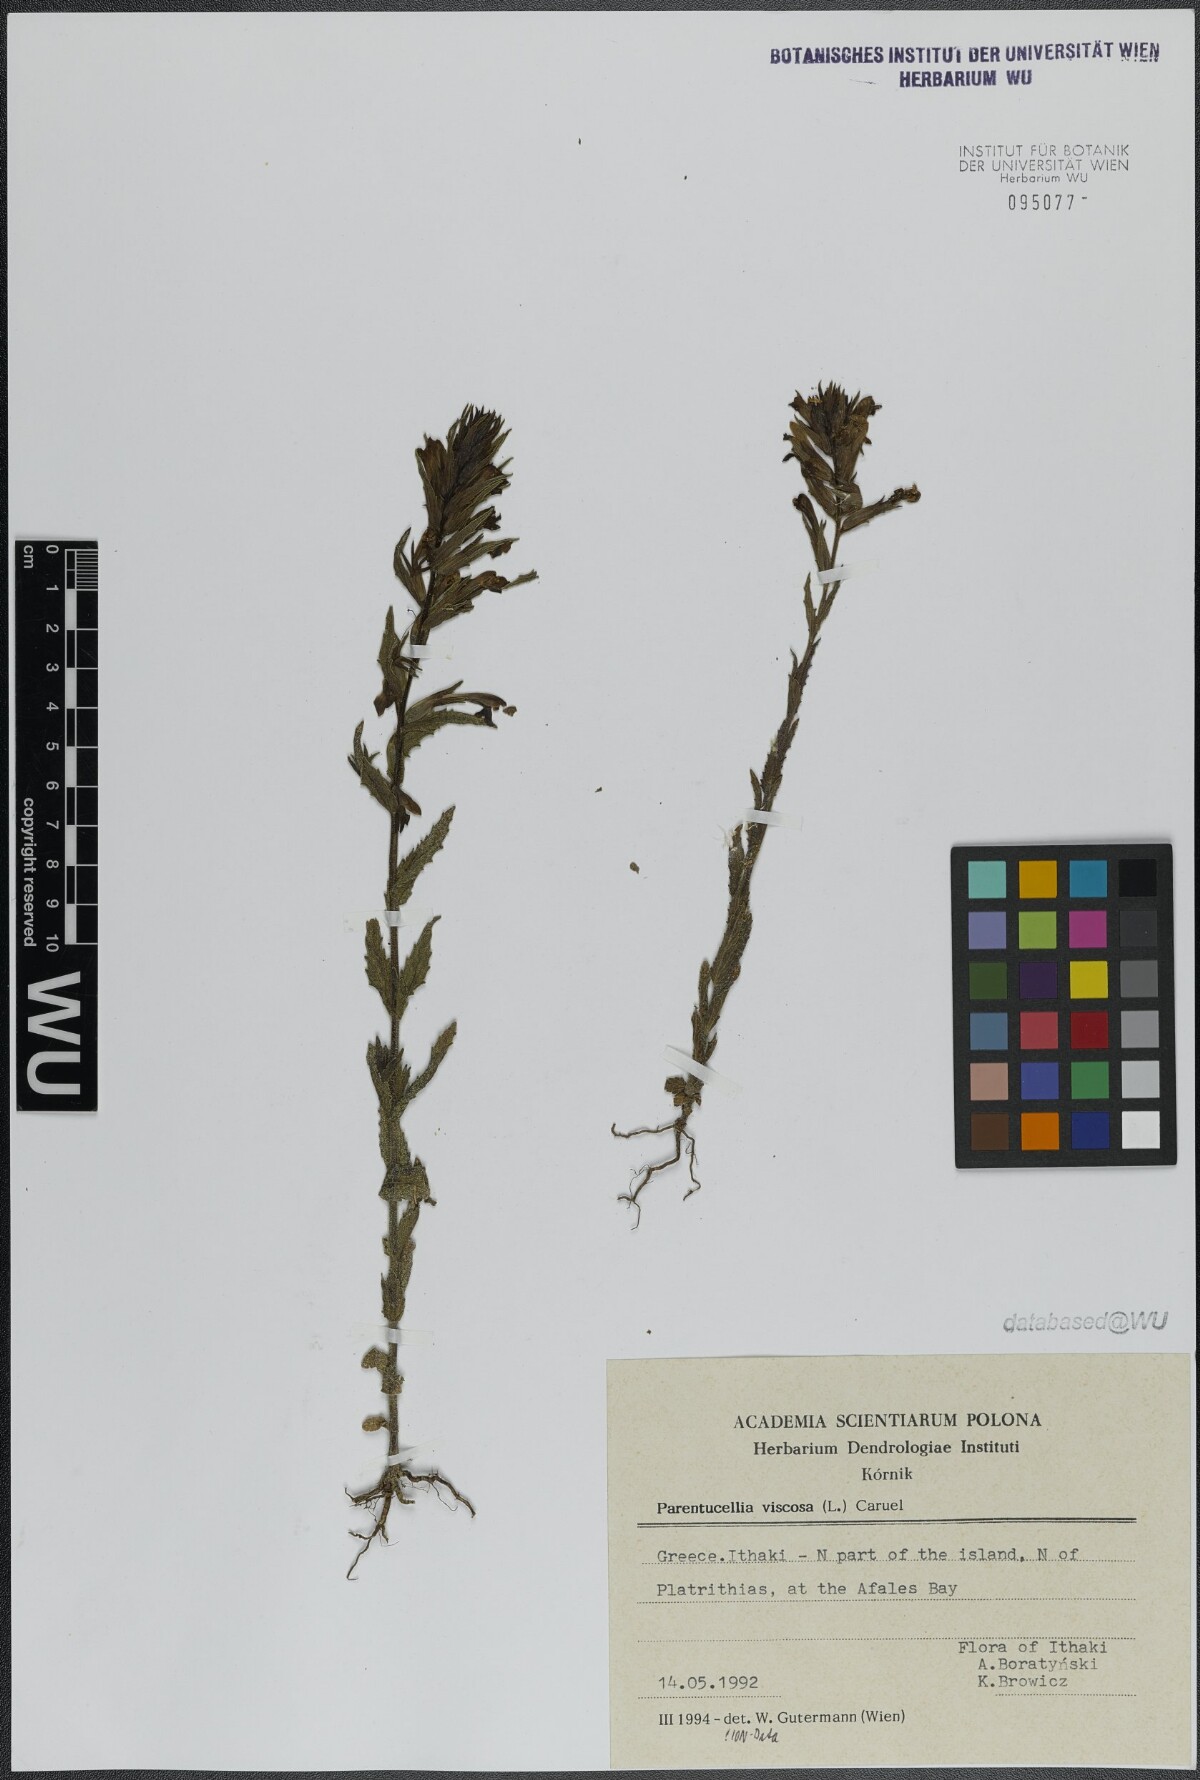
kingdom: Plantae
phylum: Tracheophyta
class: Magnoliopsida
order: Lamiales
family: Orobanchaceae
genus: Bellardia
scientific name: Bellardia viscosa
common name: Sticky parentucellia
